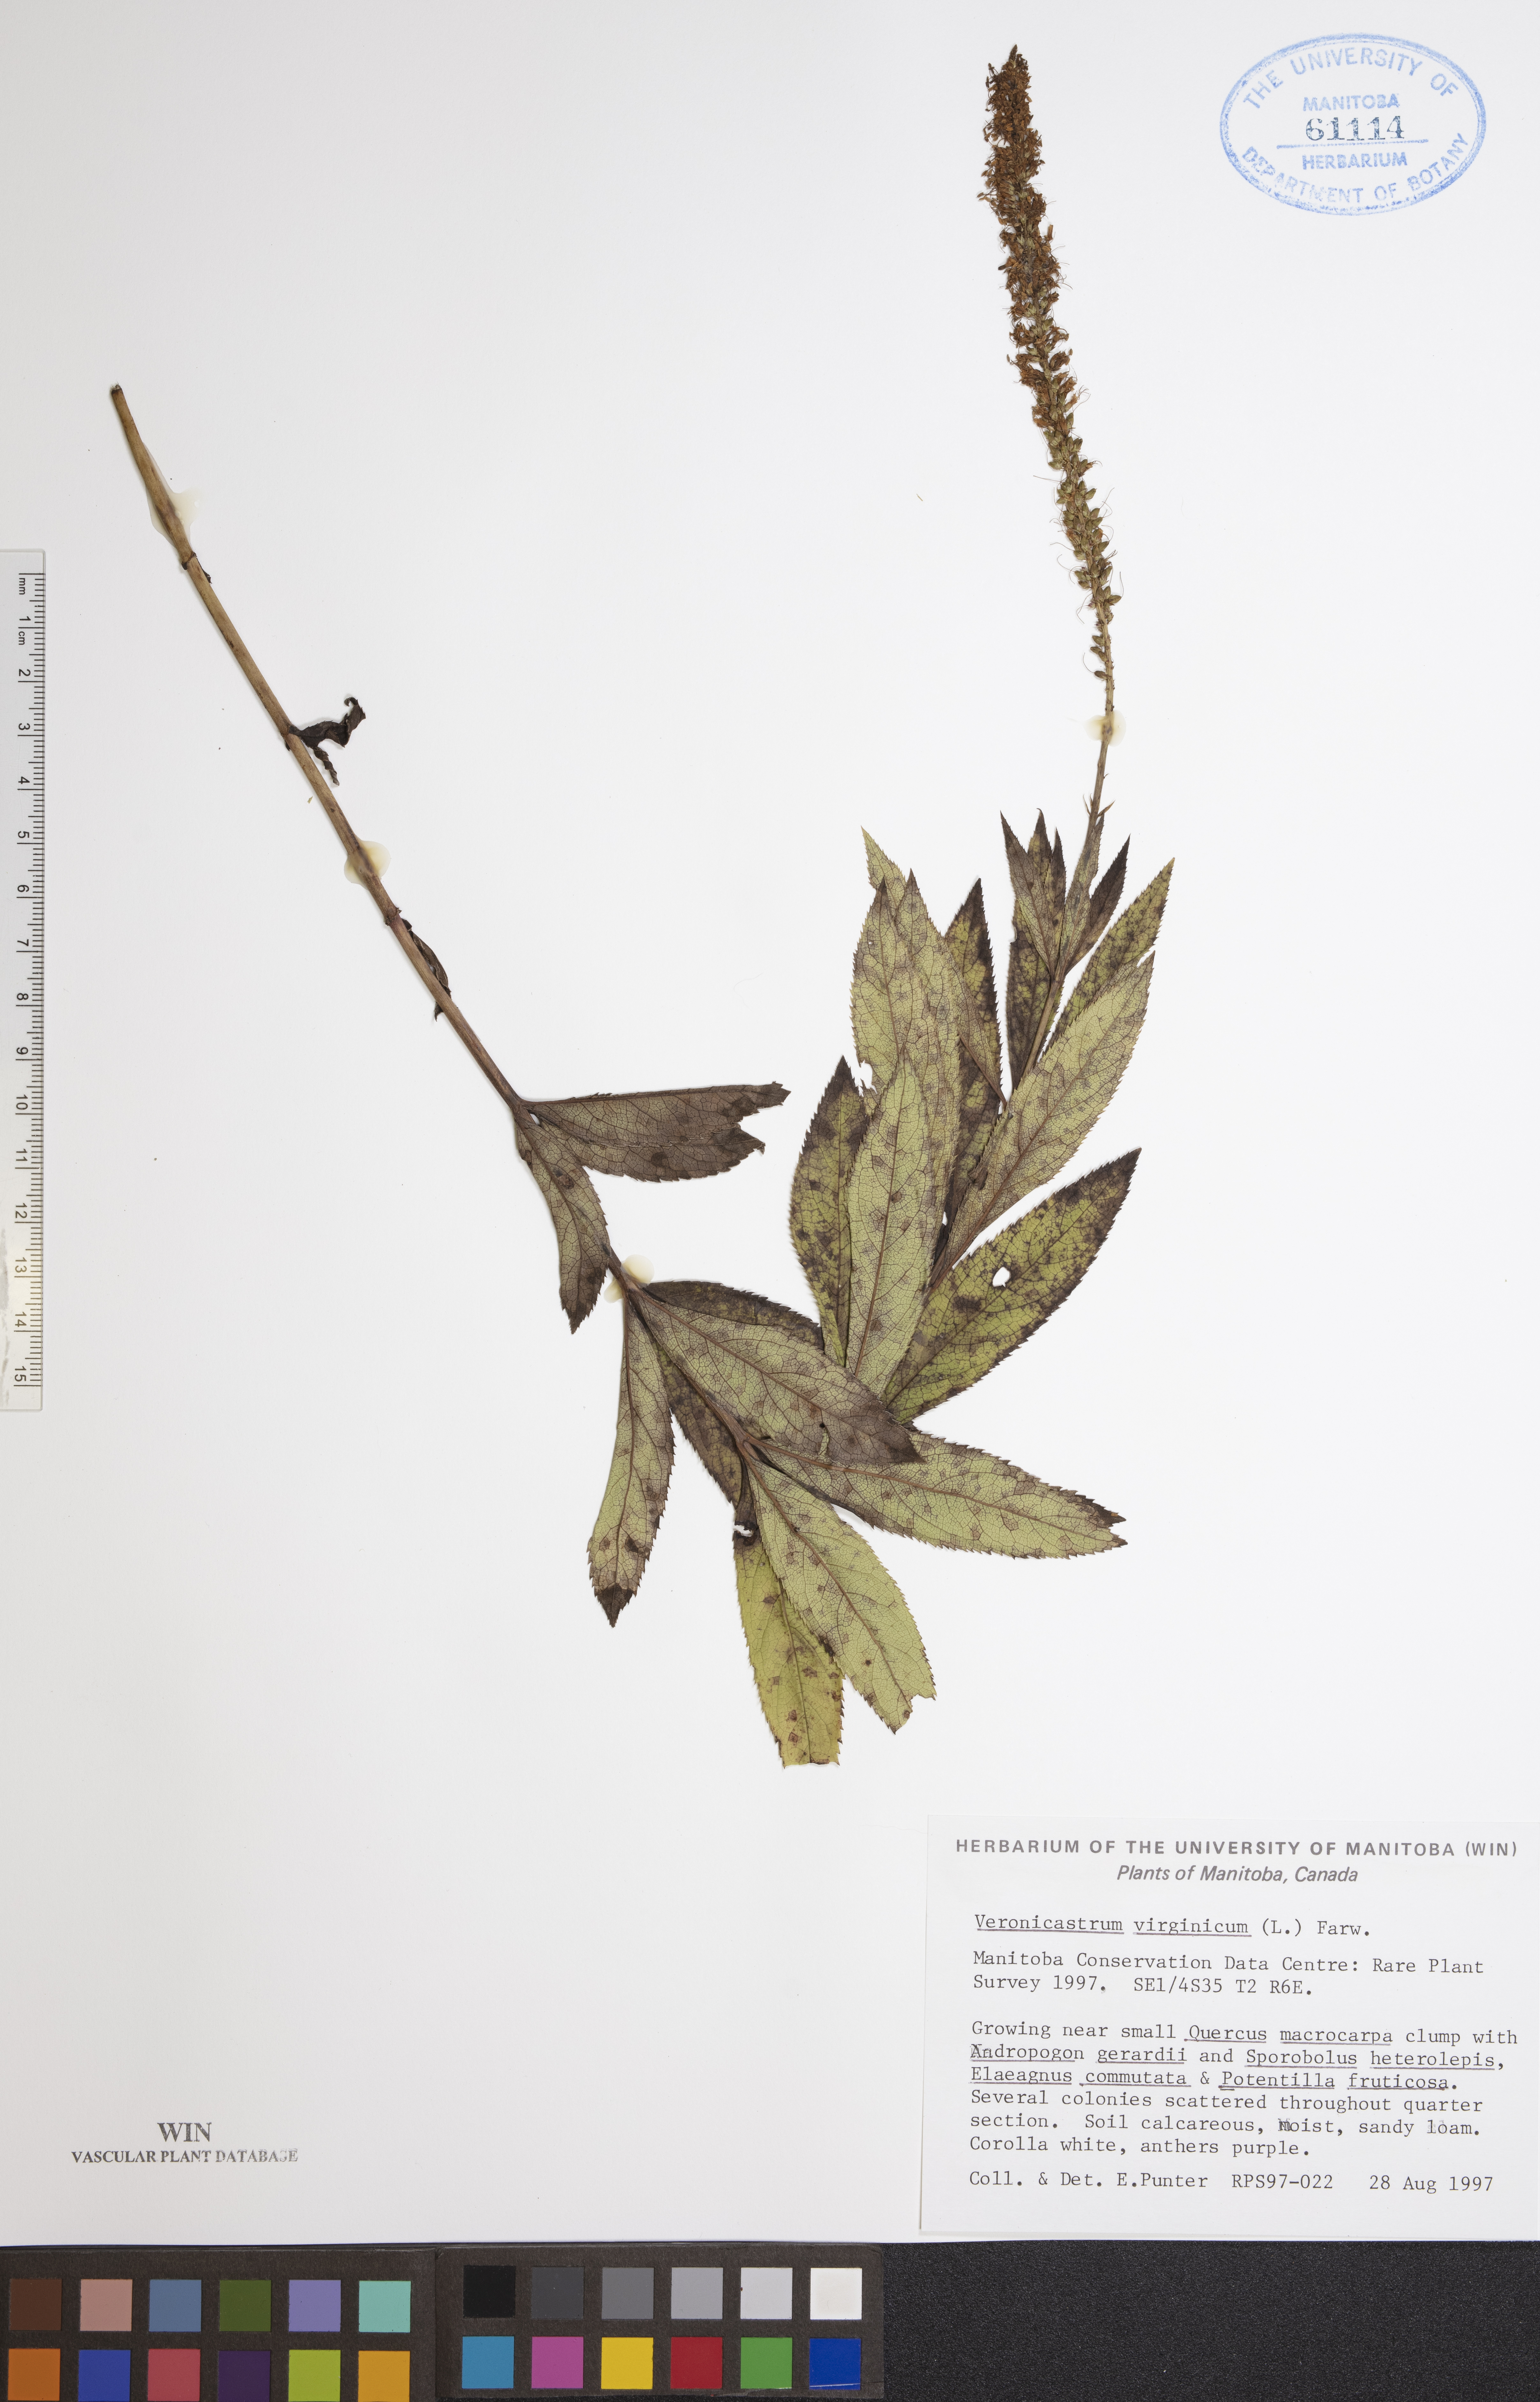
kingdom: Plantae
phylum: Tracheophyta
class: Magnoliopsida
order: Lamiales
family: Plantaginaceae
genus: Veronicastrum
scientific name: Veronicastrum virginicum
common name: Blackroot
